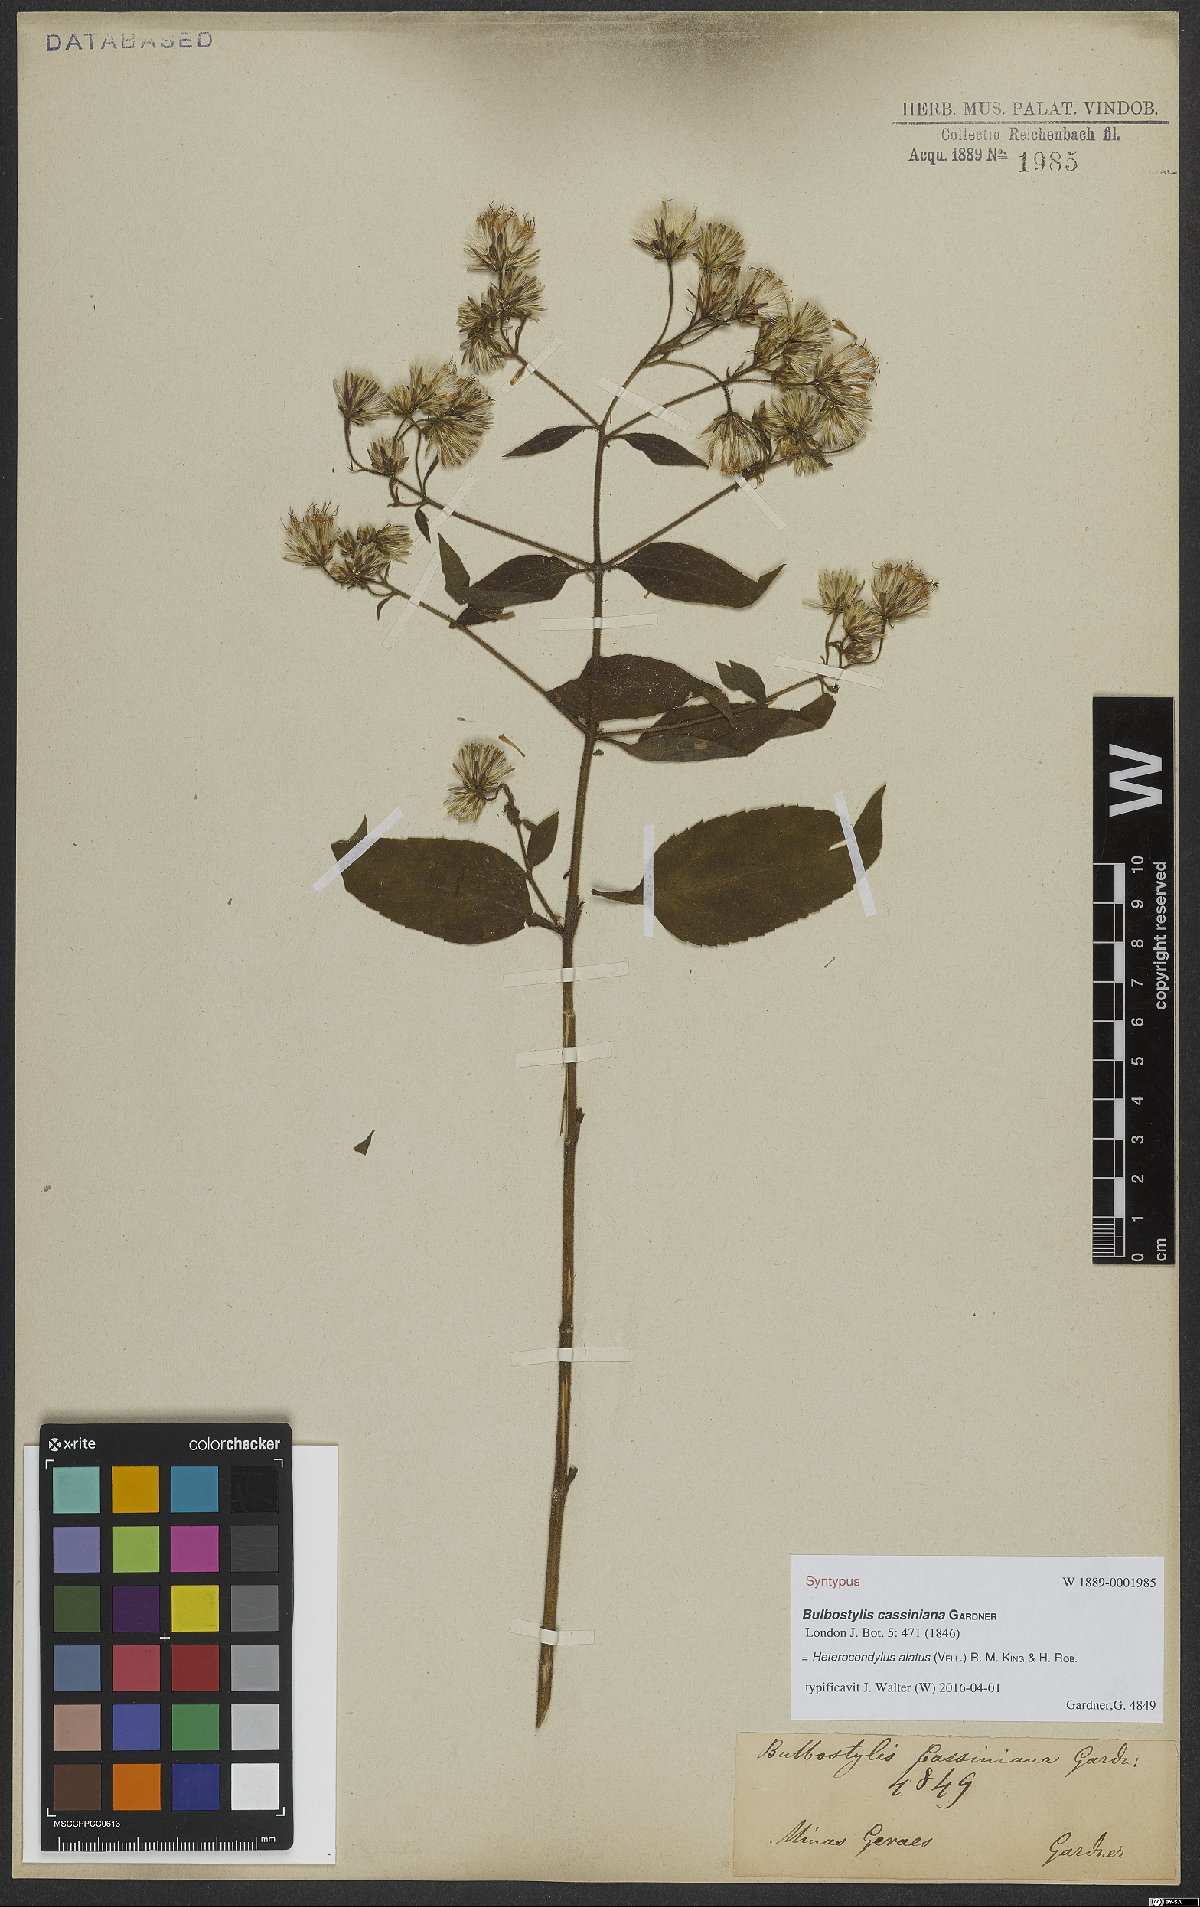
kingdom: Plantae
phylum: Tracheophyta
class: Magnoliopsida
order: Asterales
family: Asteraceae
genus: Heterocondylus
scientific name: Heterocondylus alatus
